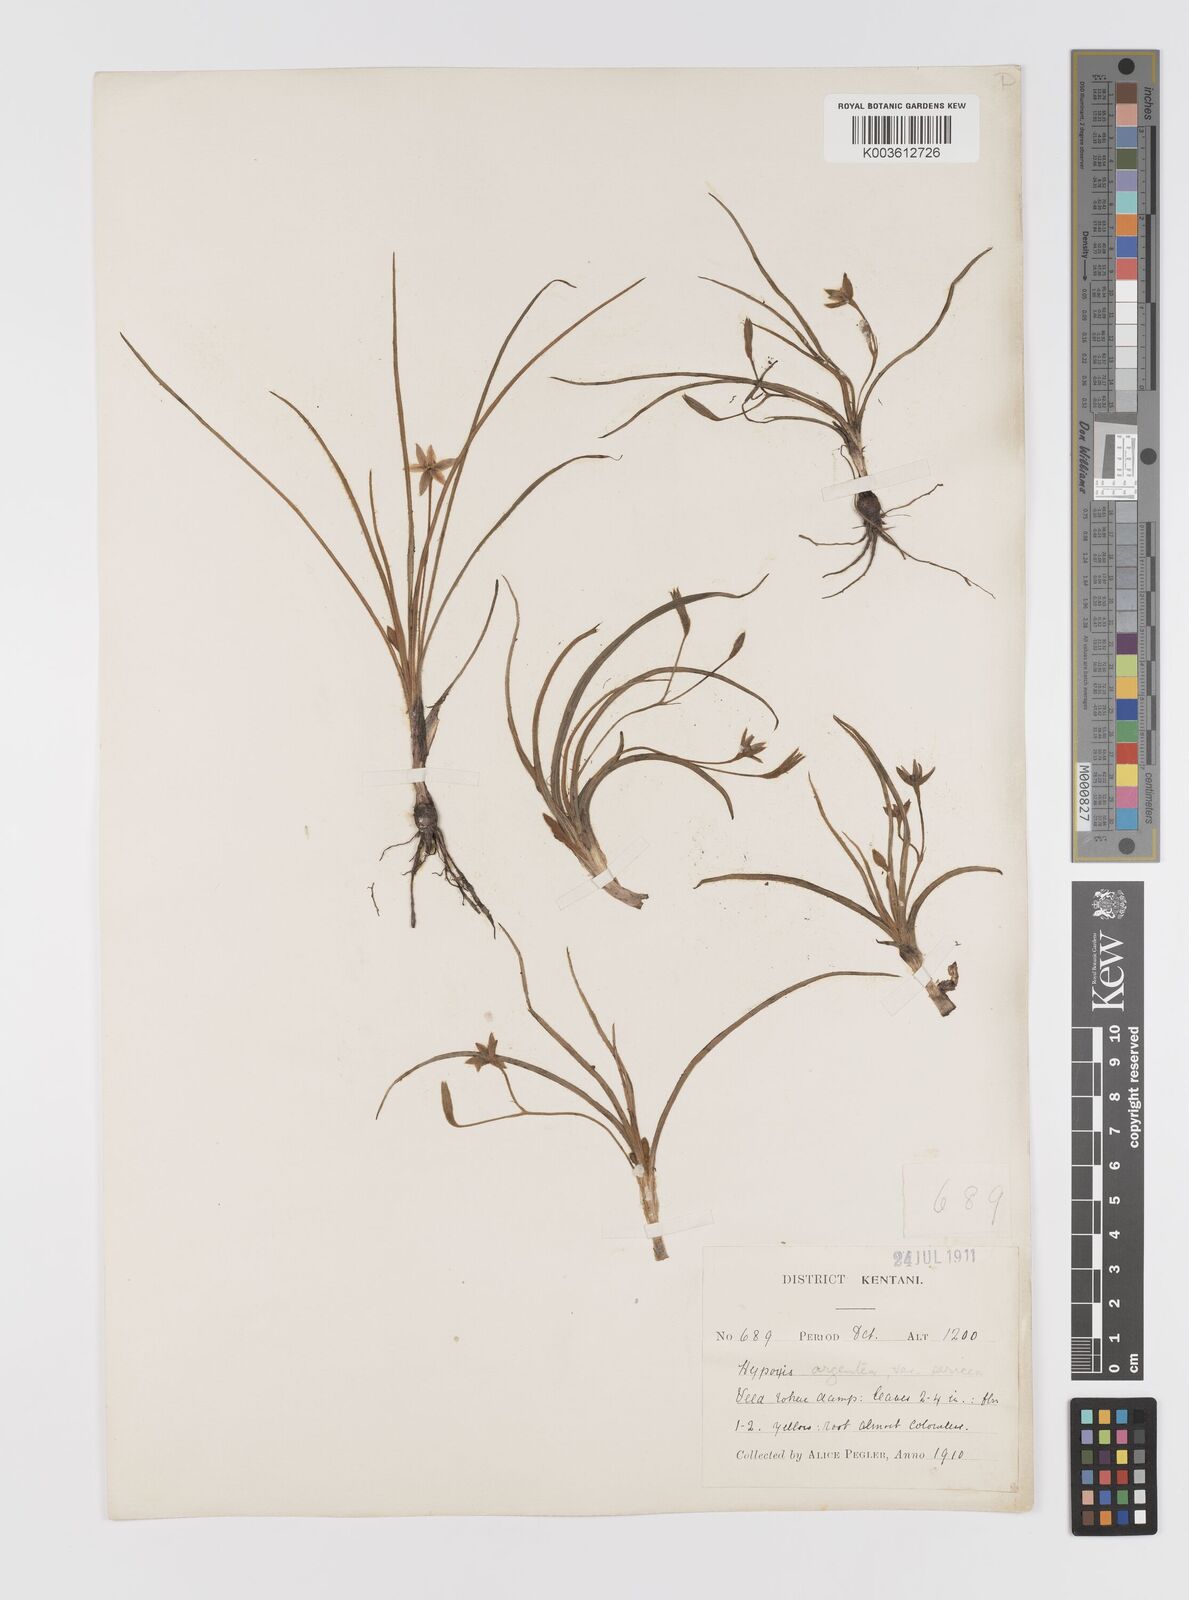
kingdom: Plantae
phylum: Tracheophyta
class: Liliopsida
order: Asparagales
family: Hypoxidaceae
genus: Hypoxis
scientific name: Hypoxis gerrardii
